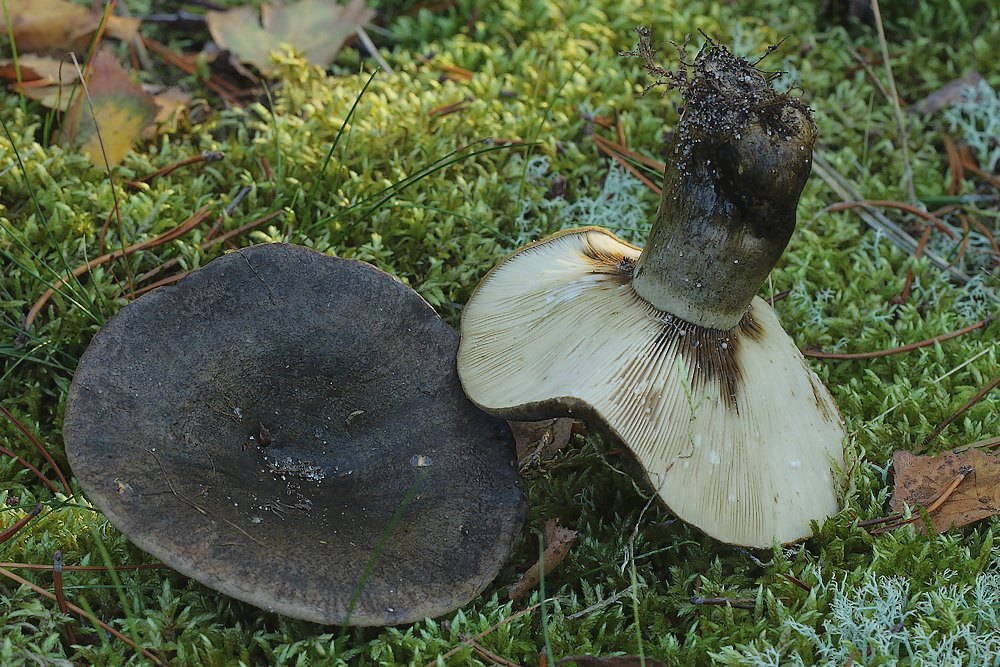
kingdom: Fungi
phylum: Basidiomycota
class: Agaricomycetes
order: Russulales
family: Russulaceae
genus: Lactarius
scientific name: Lactarius necator
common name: manddraber-mælkehat
